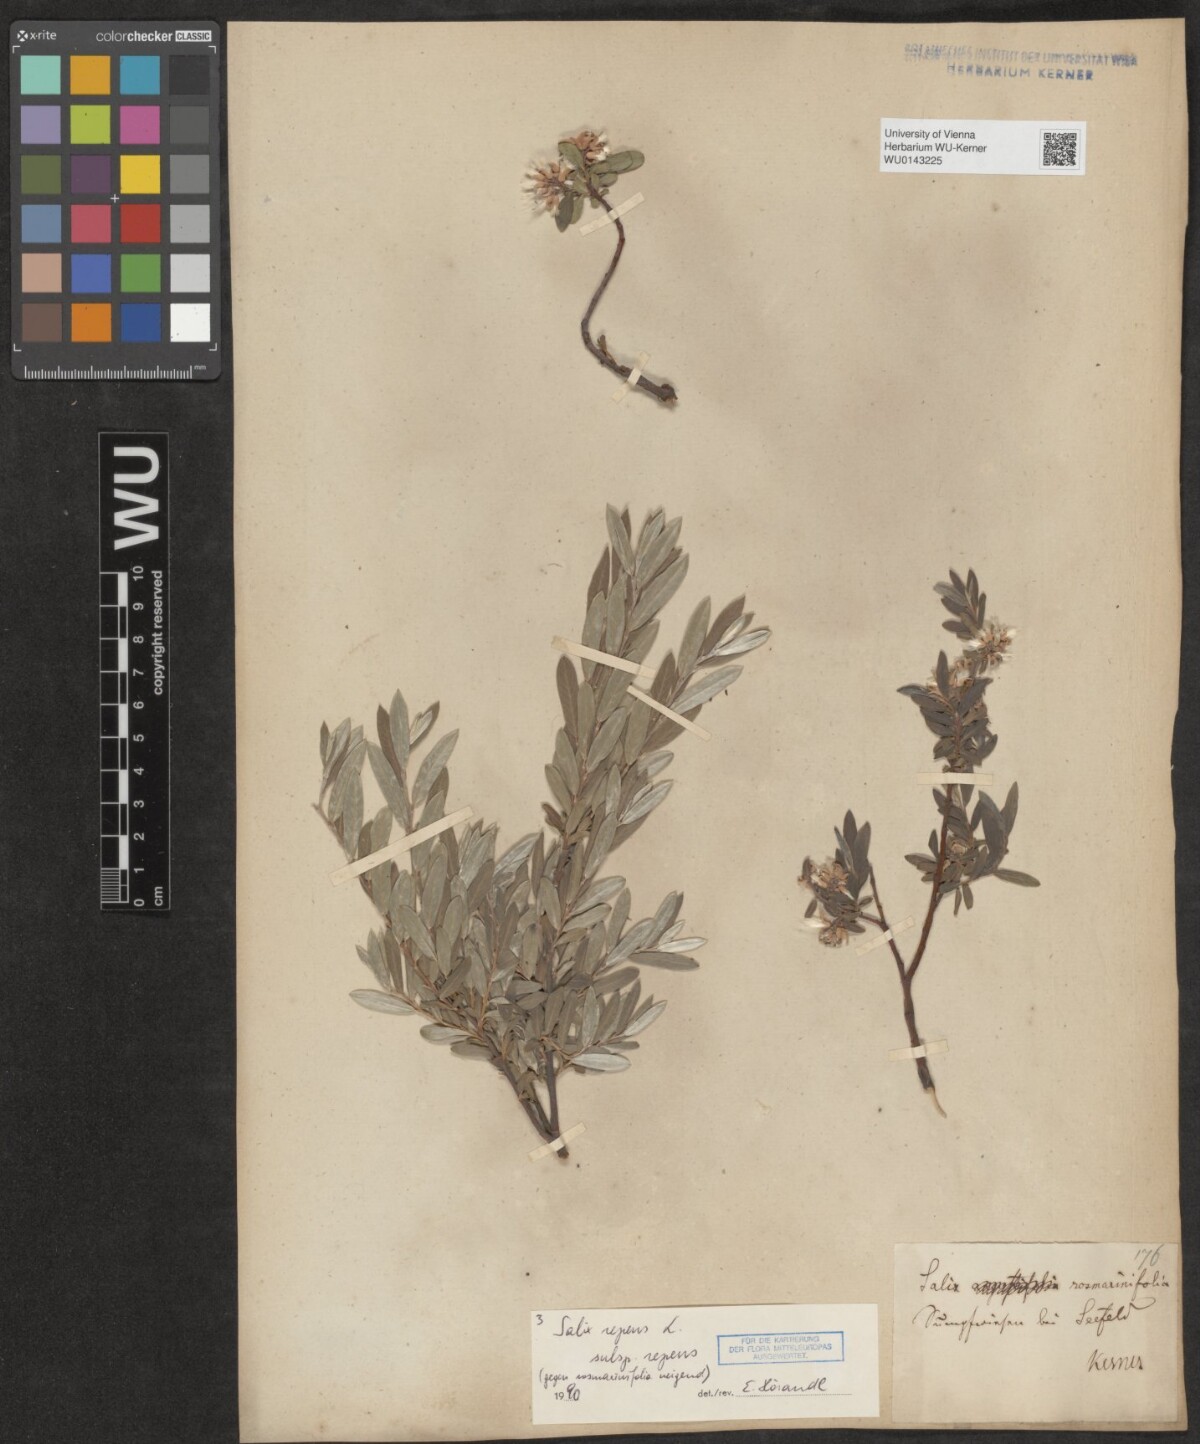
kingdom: Plantae
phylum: Tracheophyta
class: Magnoliopsida
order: Malpighiales
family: Salicaceae
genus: Salix
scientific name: Salix repens
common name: Creeping willow
